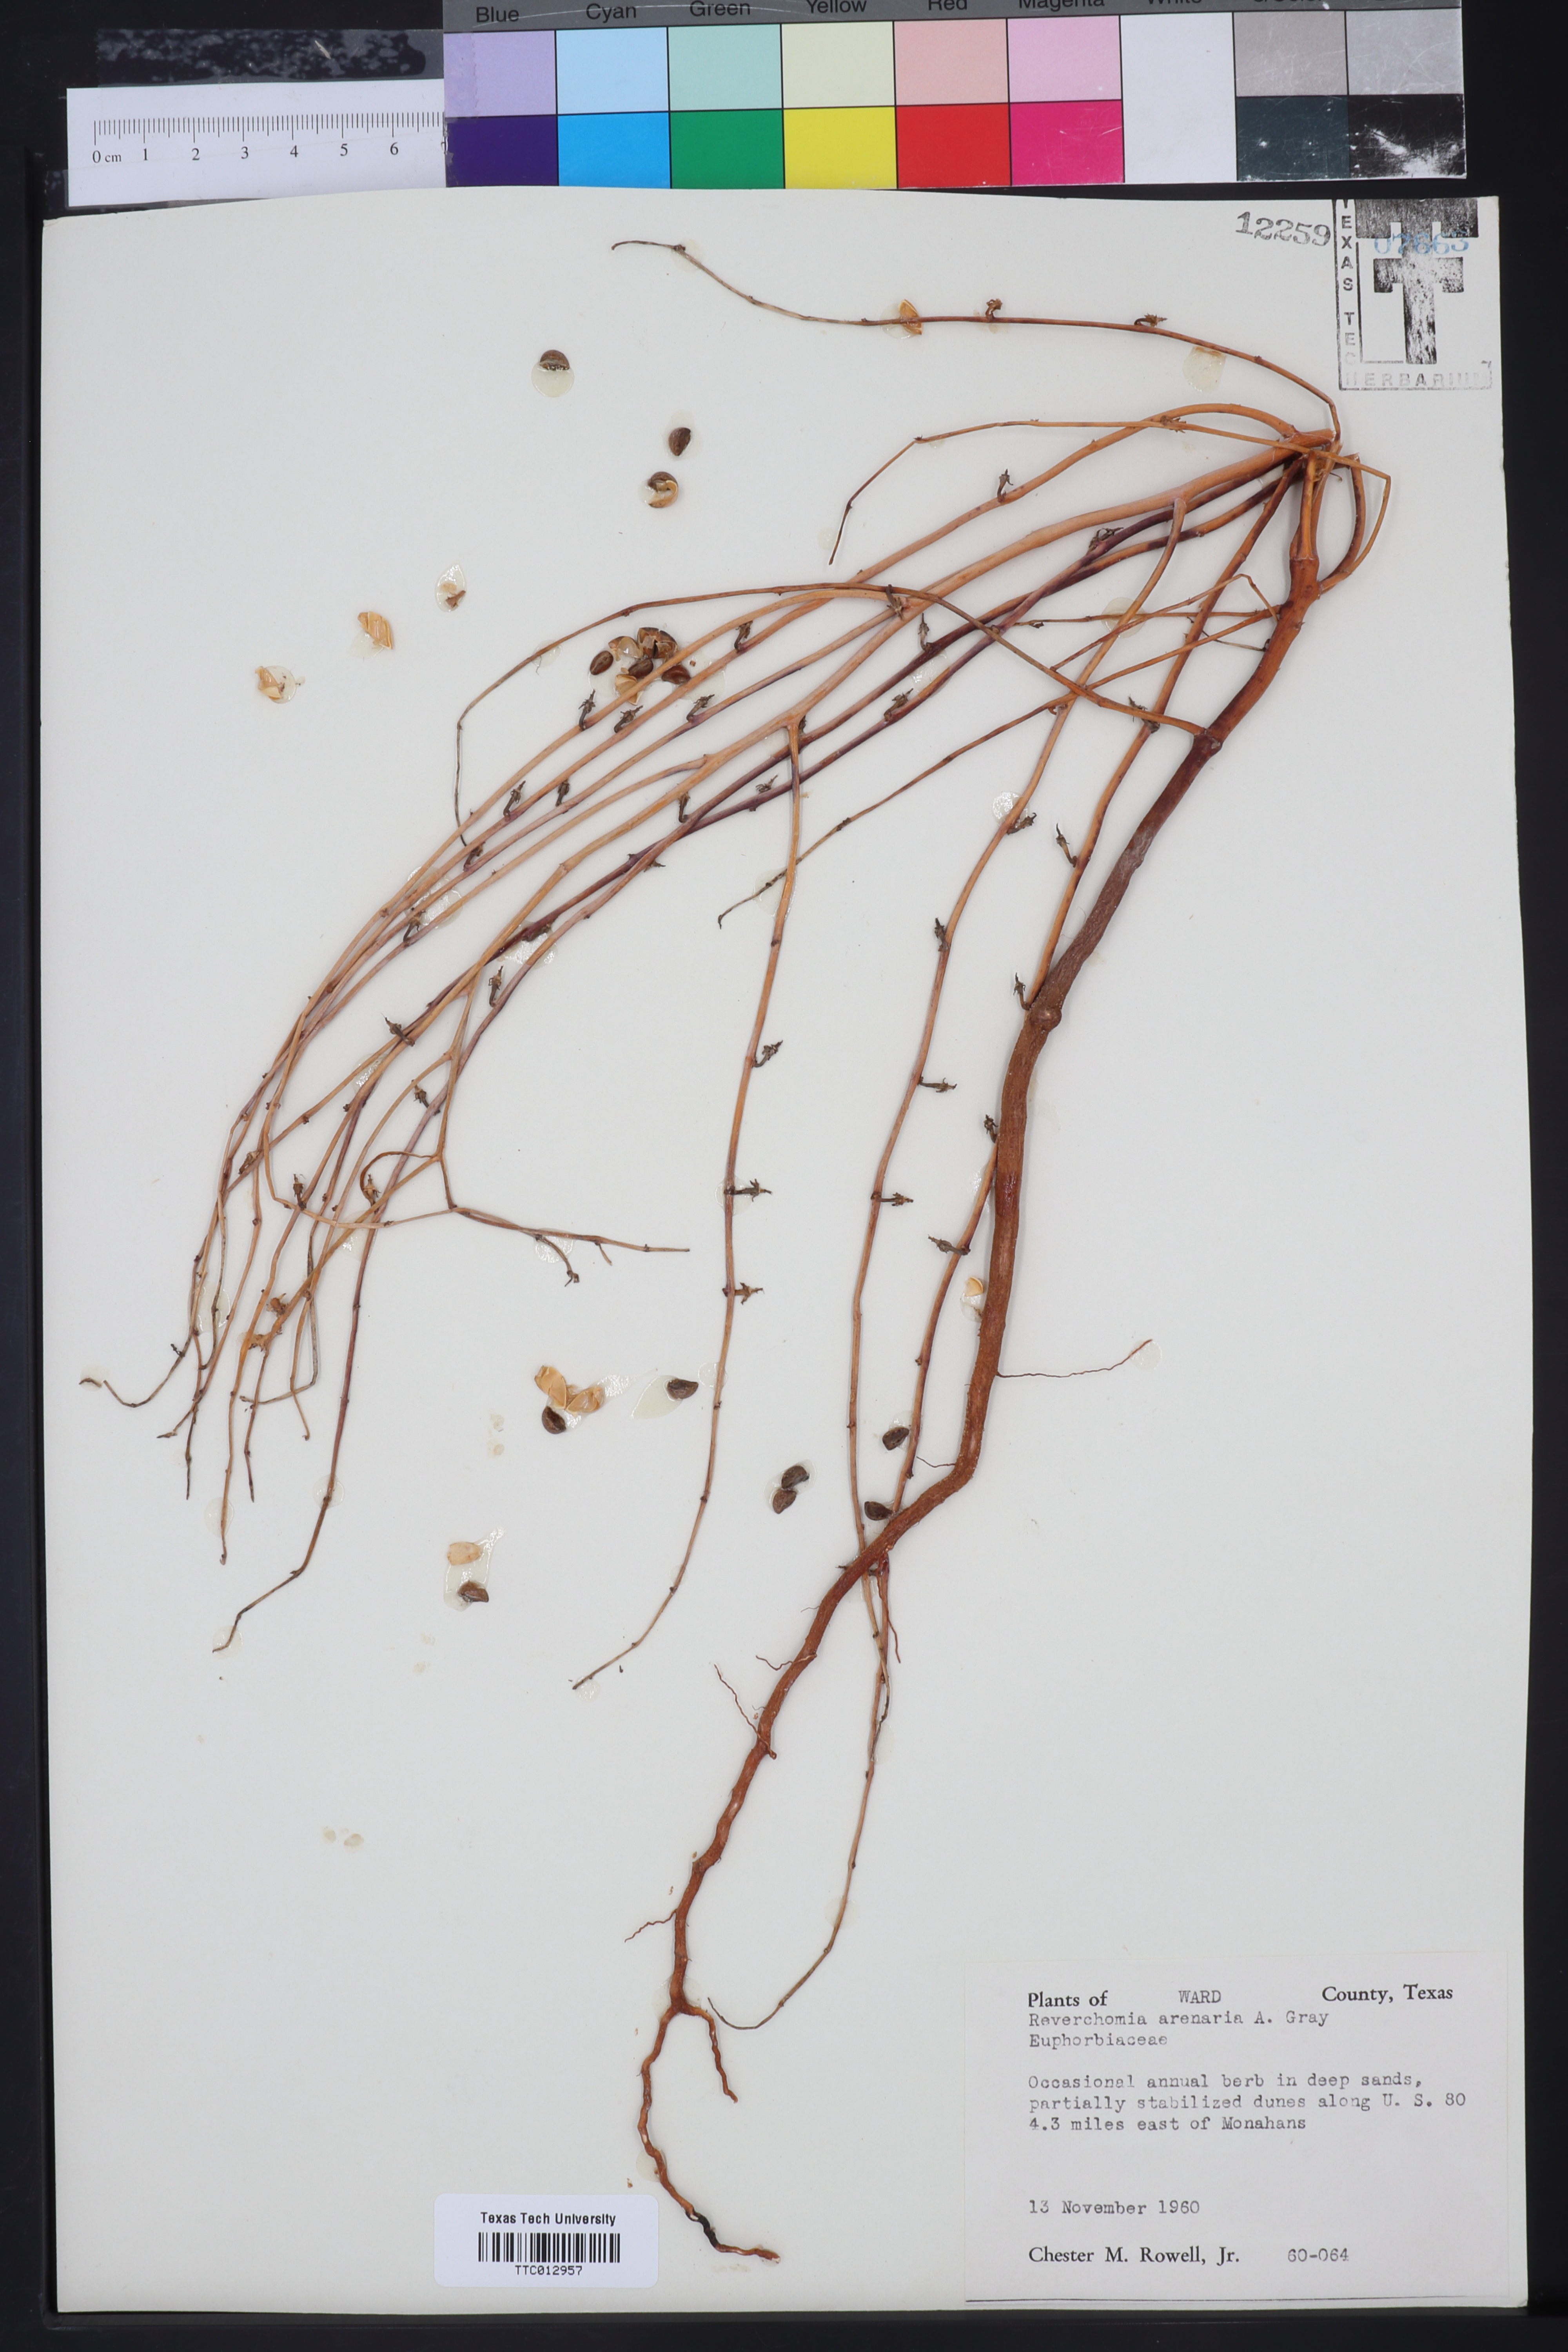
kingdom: Plantae
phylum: Tracheophyta
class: Magnoliopsida
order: Malpighiales
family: Phyllanthaceae
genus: Phyllanthus
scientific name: Phyllanthus warnockii
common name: Sand reverchonia
